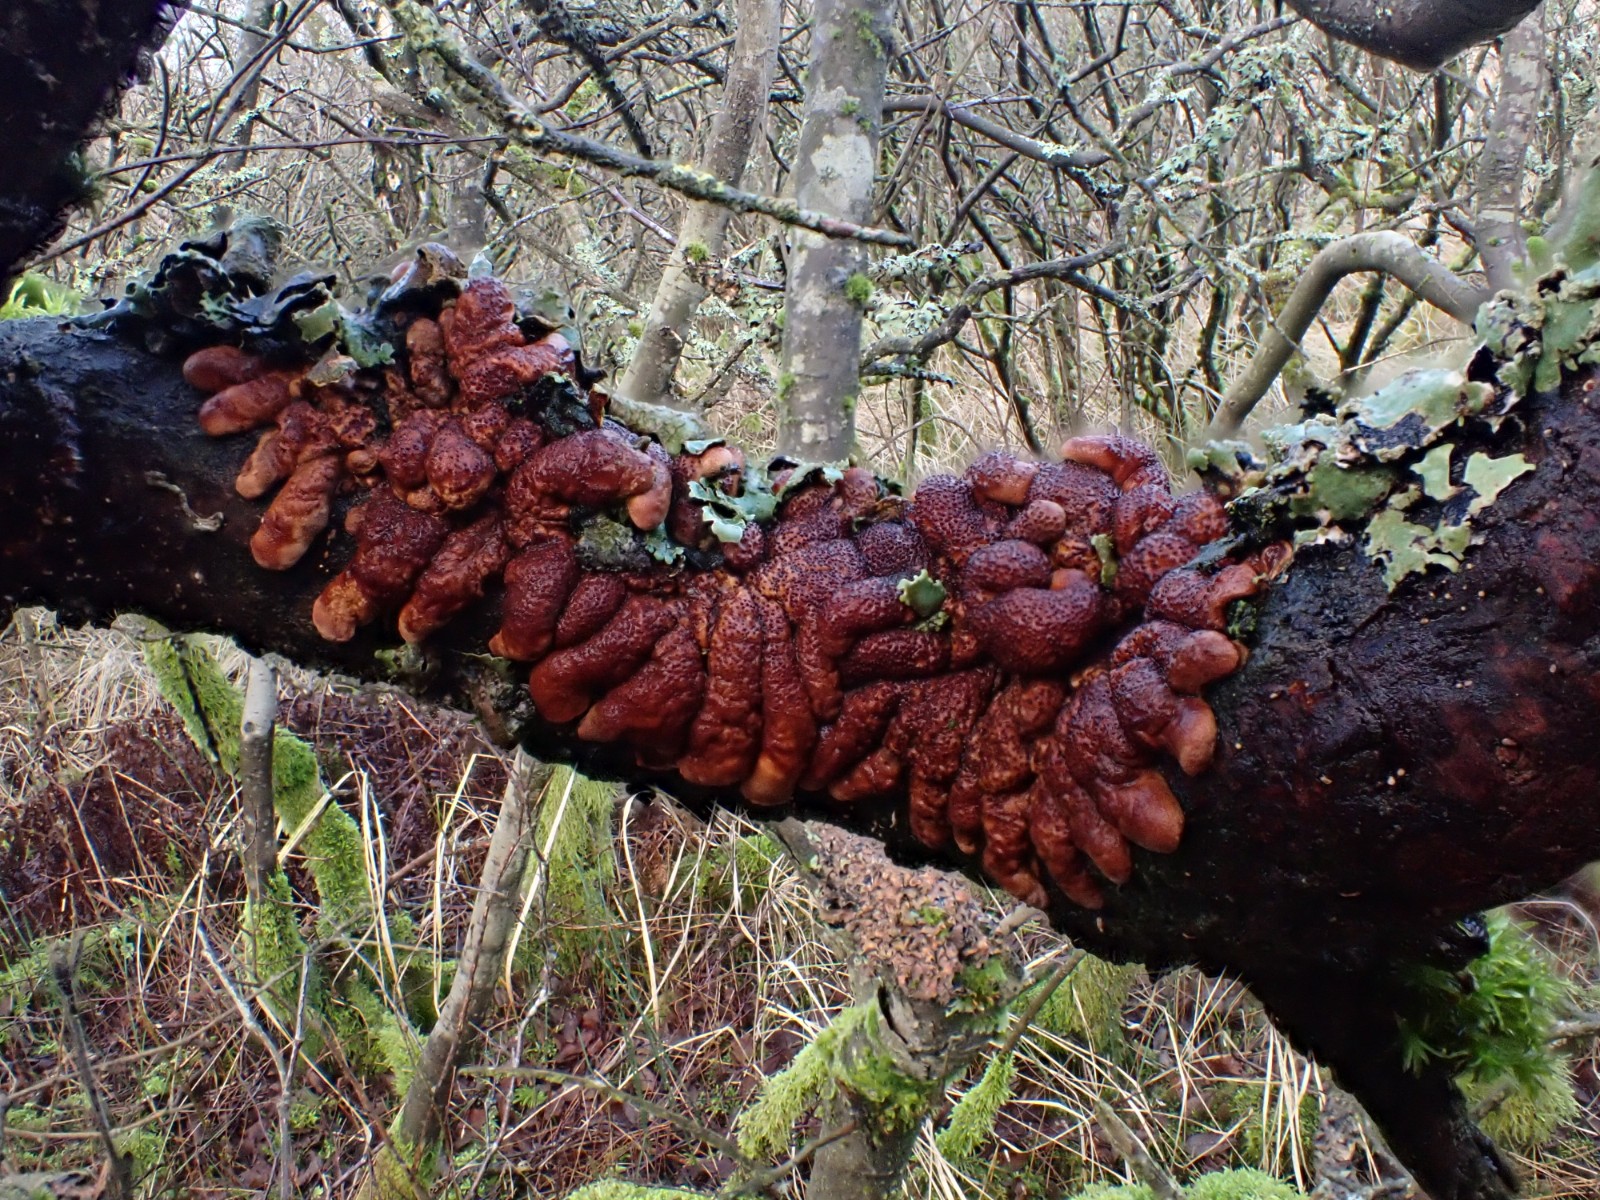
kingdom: Fungi
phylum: Ascomycota
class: Sordariomycetes
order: Hypocreales
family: Hypocreaceae
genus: Hypocreopsis
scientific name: Hypocreopsis lichenoides
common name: pilfinger
